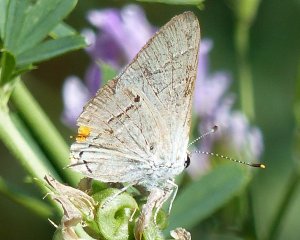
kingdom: Animalia
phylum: Arthropoda
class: Insecta
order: Lepidoptera
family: Lycaenidae
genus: Strymon
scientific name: Strymon melinus
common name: Gray Hairstreak
